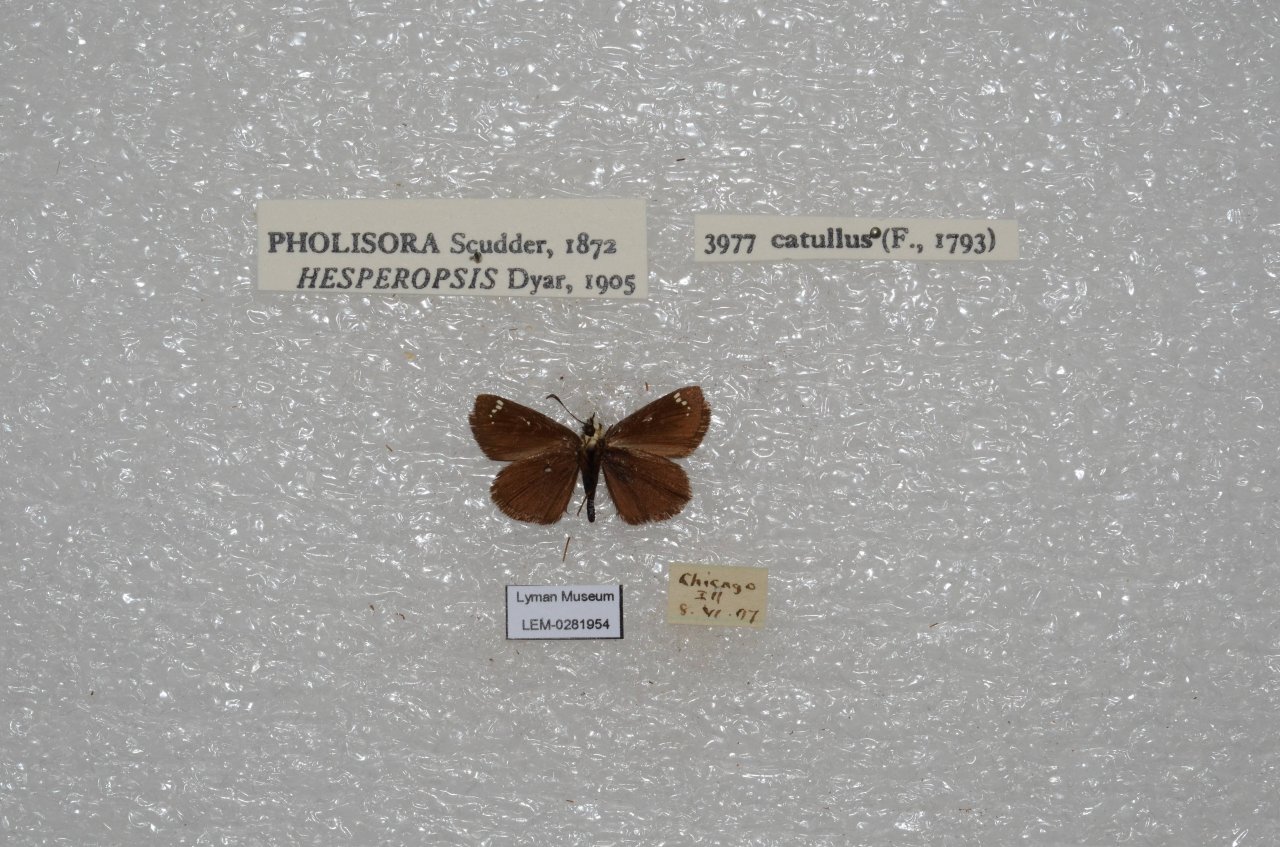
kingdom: Animalia
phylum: Arthropoda
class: Insecta
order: Lepidoptera
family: Hesperiidae
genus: Pholisora
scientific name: Pholisora catullus
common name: Common Sootywing
